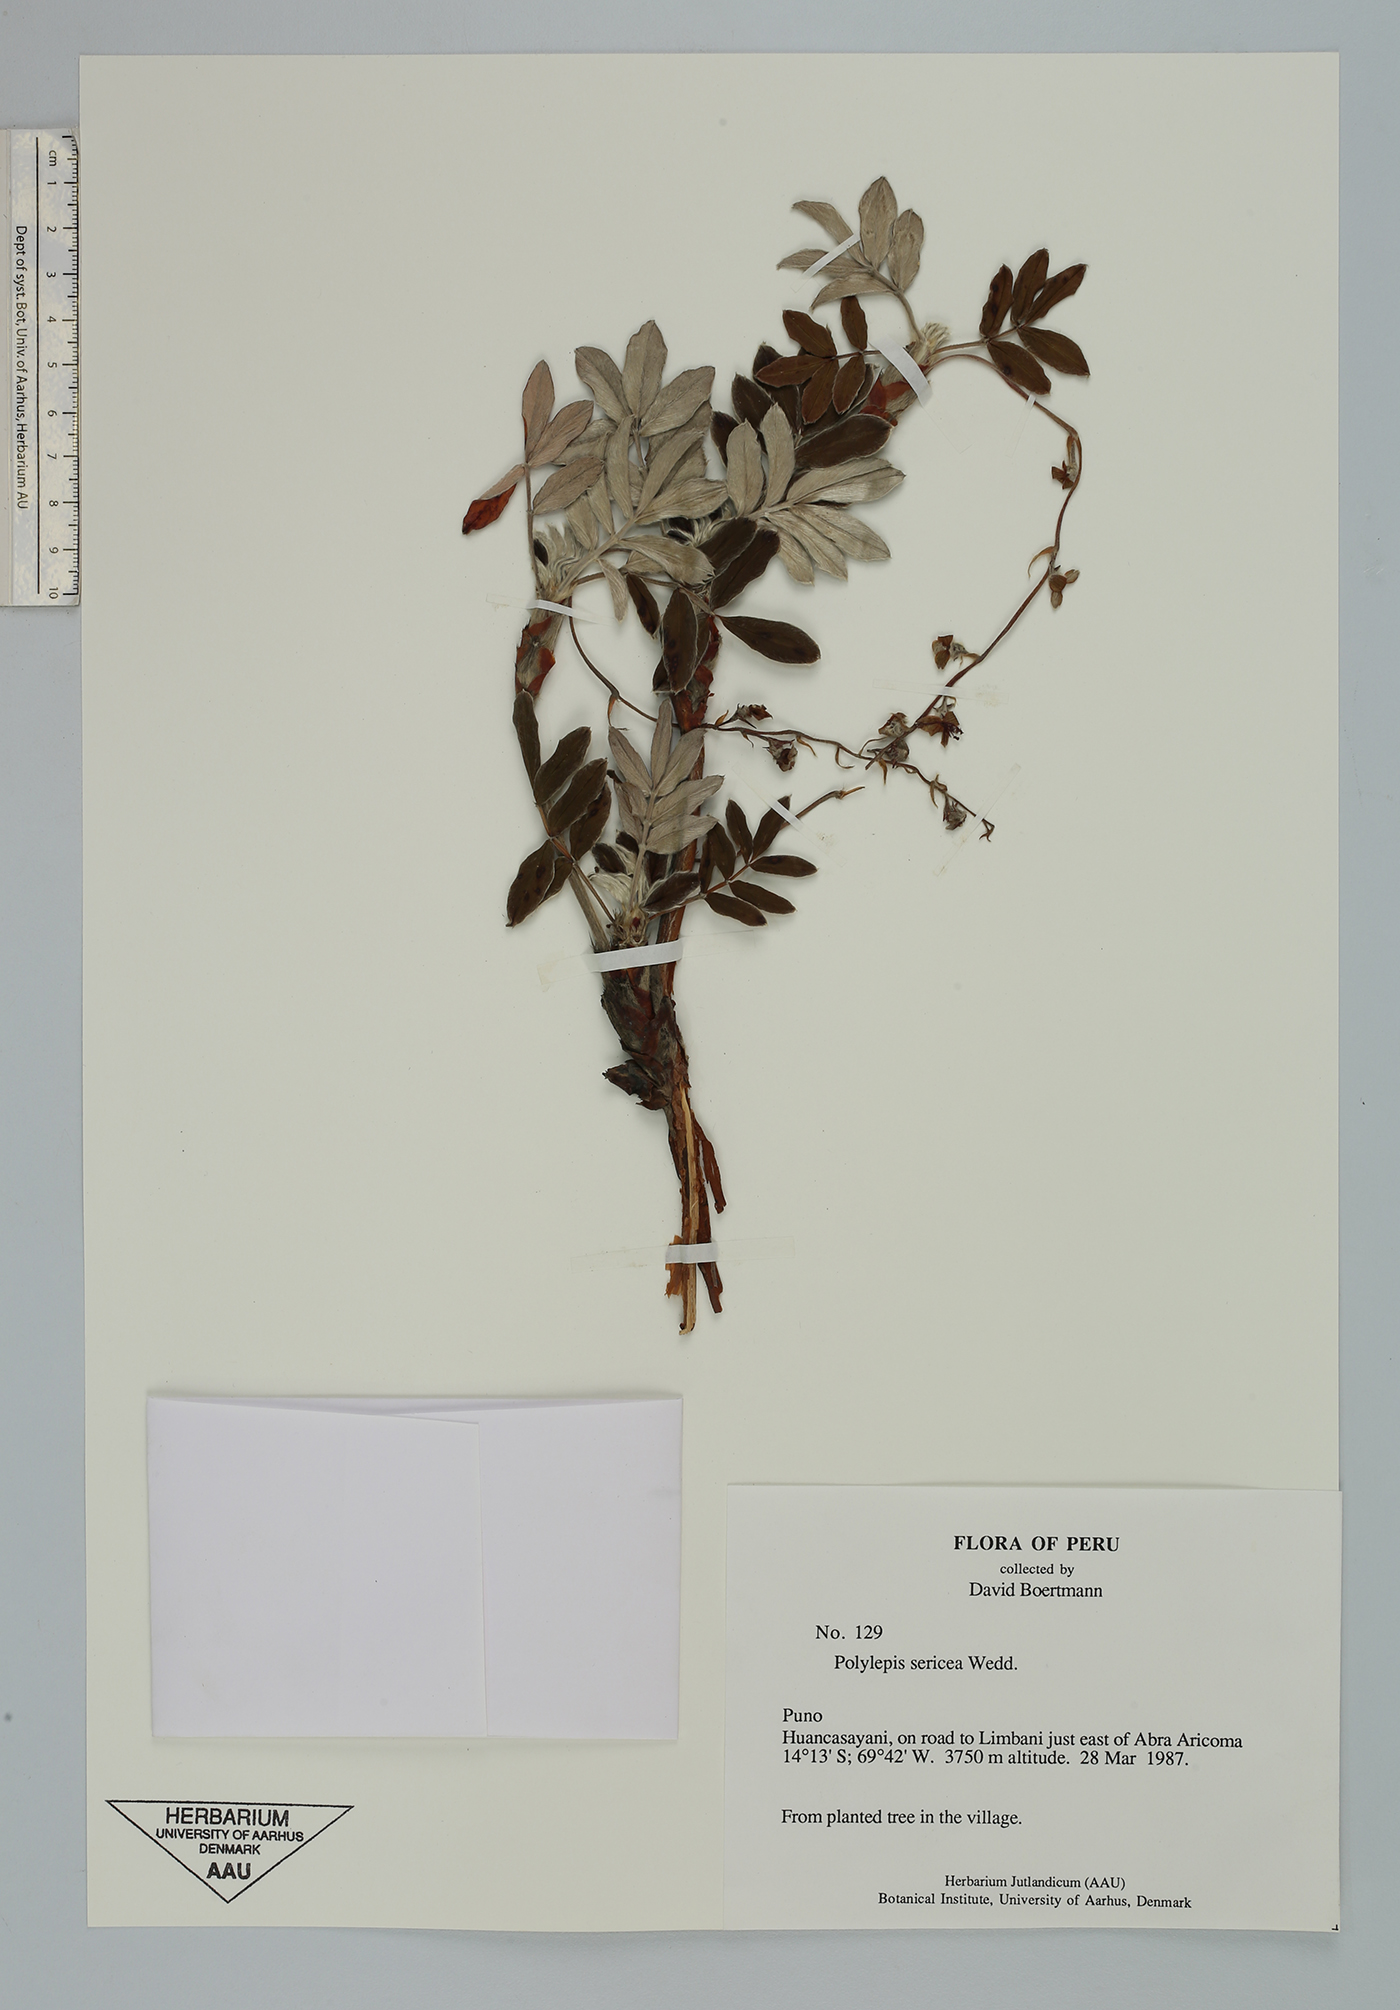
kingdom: Plantae
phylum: Tracheophyta
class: Magnoliopsida
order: Rosales
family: Rosaceae
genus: Polylepis
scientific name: Polylepis sericea
